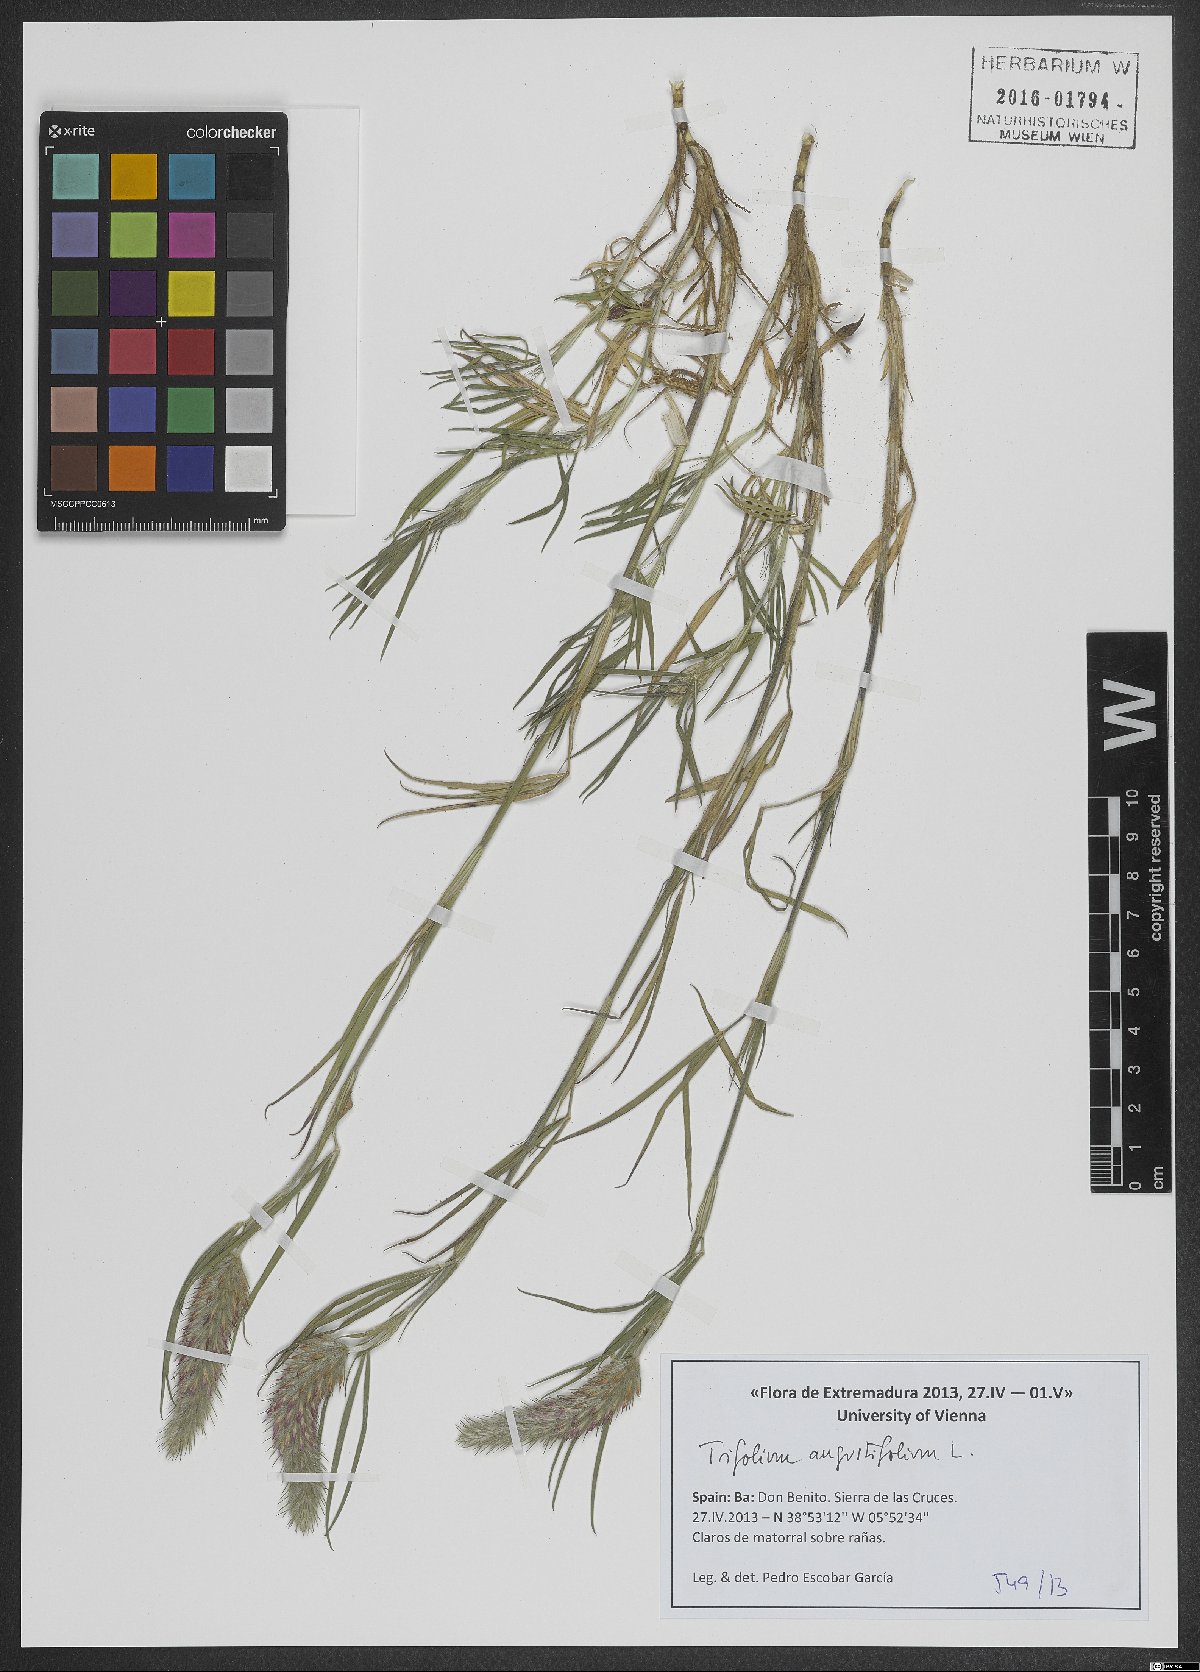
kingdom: Plantae
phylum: Tracheophyta
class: Magnoliopsida
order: Fabales
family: Fabaceae
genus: Trifolium
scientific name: Trifolium angustifolium
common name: Narrow clover
